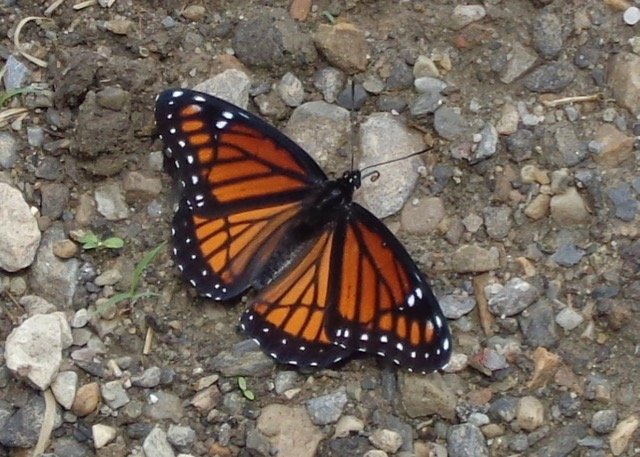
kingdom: Animalia
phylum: Arthropoda
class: Insecta
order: Lepidoptera
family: Nymphalidae
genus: Limenitis
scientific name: Limenitis archippus
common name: Viceroy
